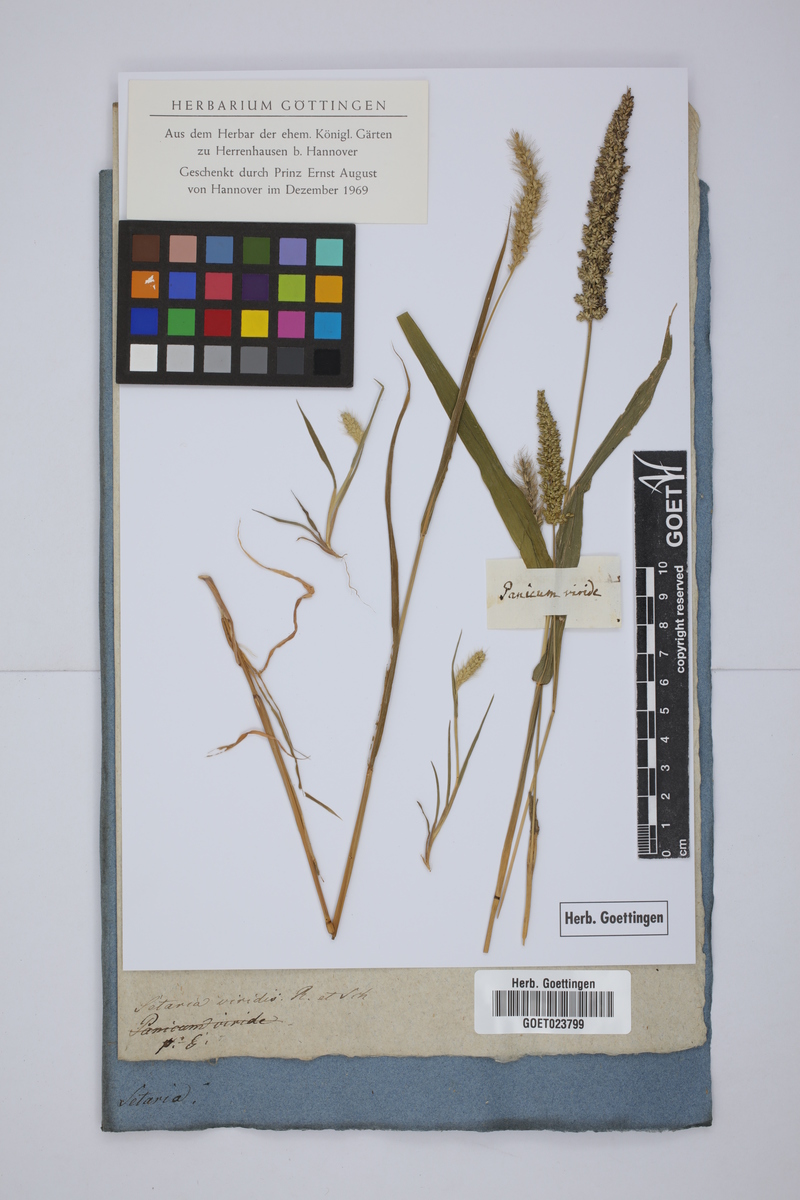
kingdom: Plantae
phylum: Tracheophyta
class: Liliopsida
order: Poales
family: Poaceae
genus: Setaria
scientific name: Setaria viridis
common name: Green bristlegrass
